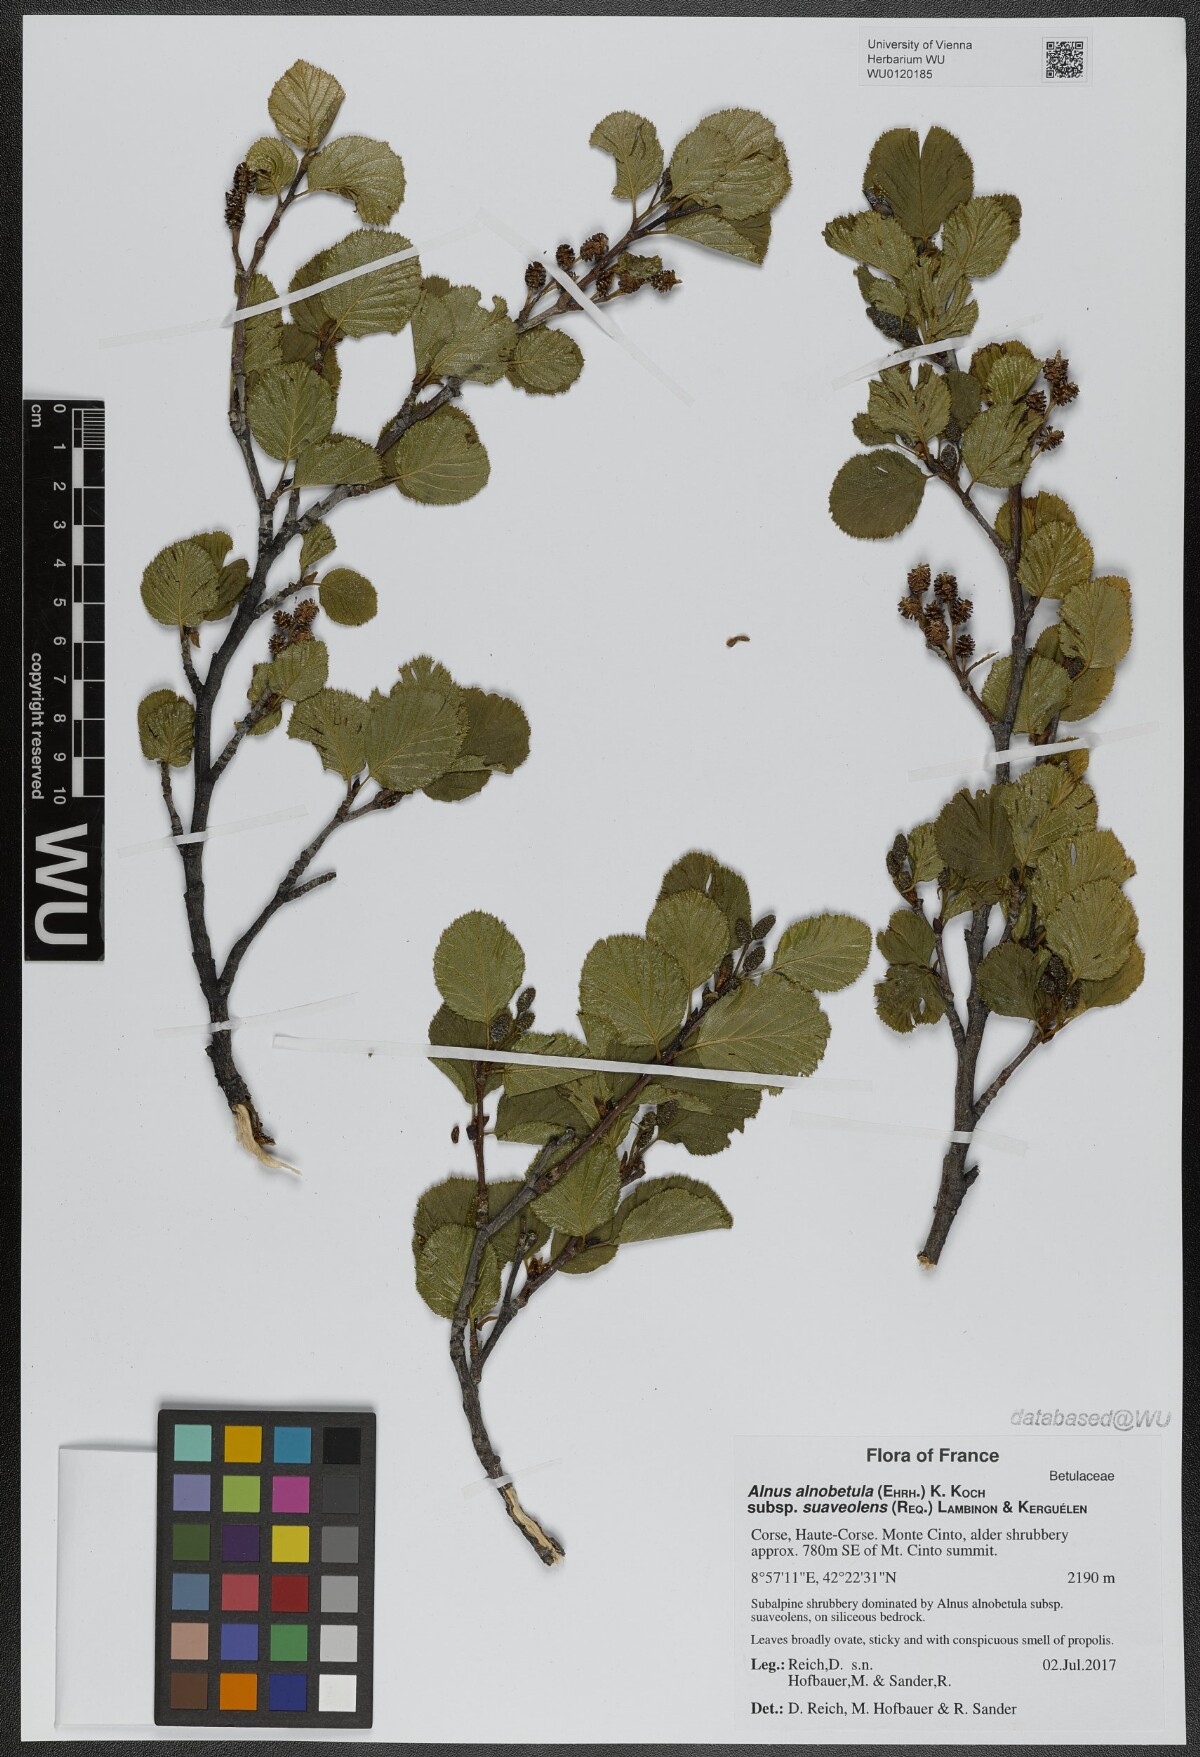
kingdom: Plantae
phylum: Tracheophyta
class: Magnoliopsida
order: Fagales
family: Betulaceae
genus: Alnus
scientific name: Alnus alnobetula
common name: Green alder
